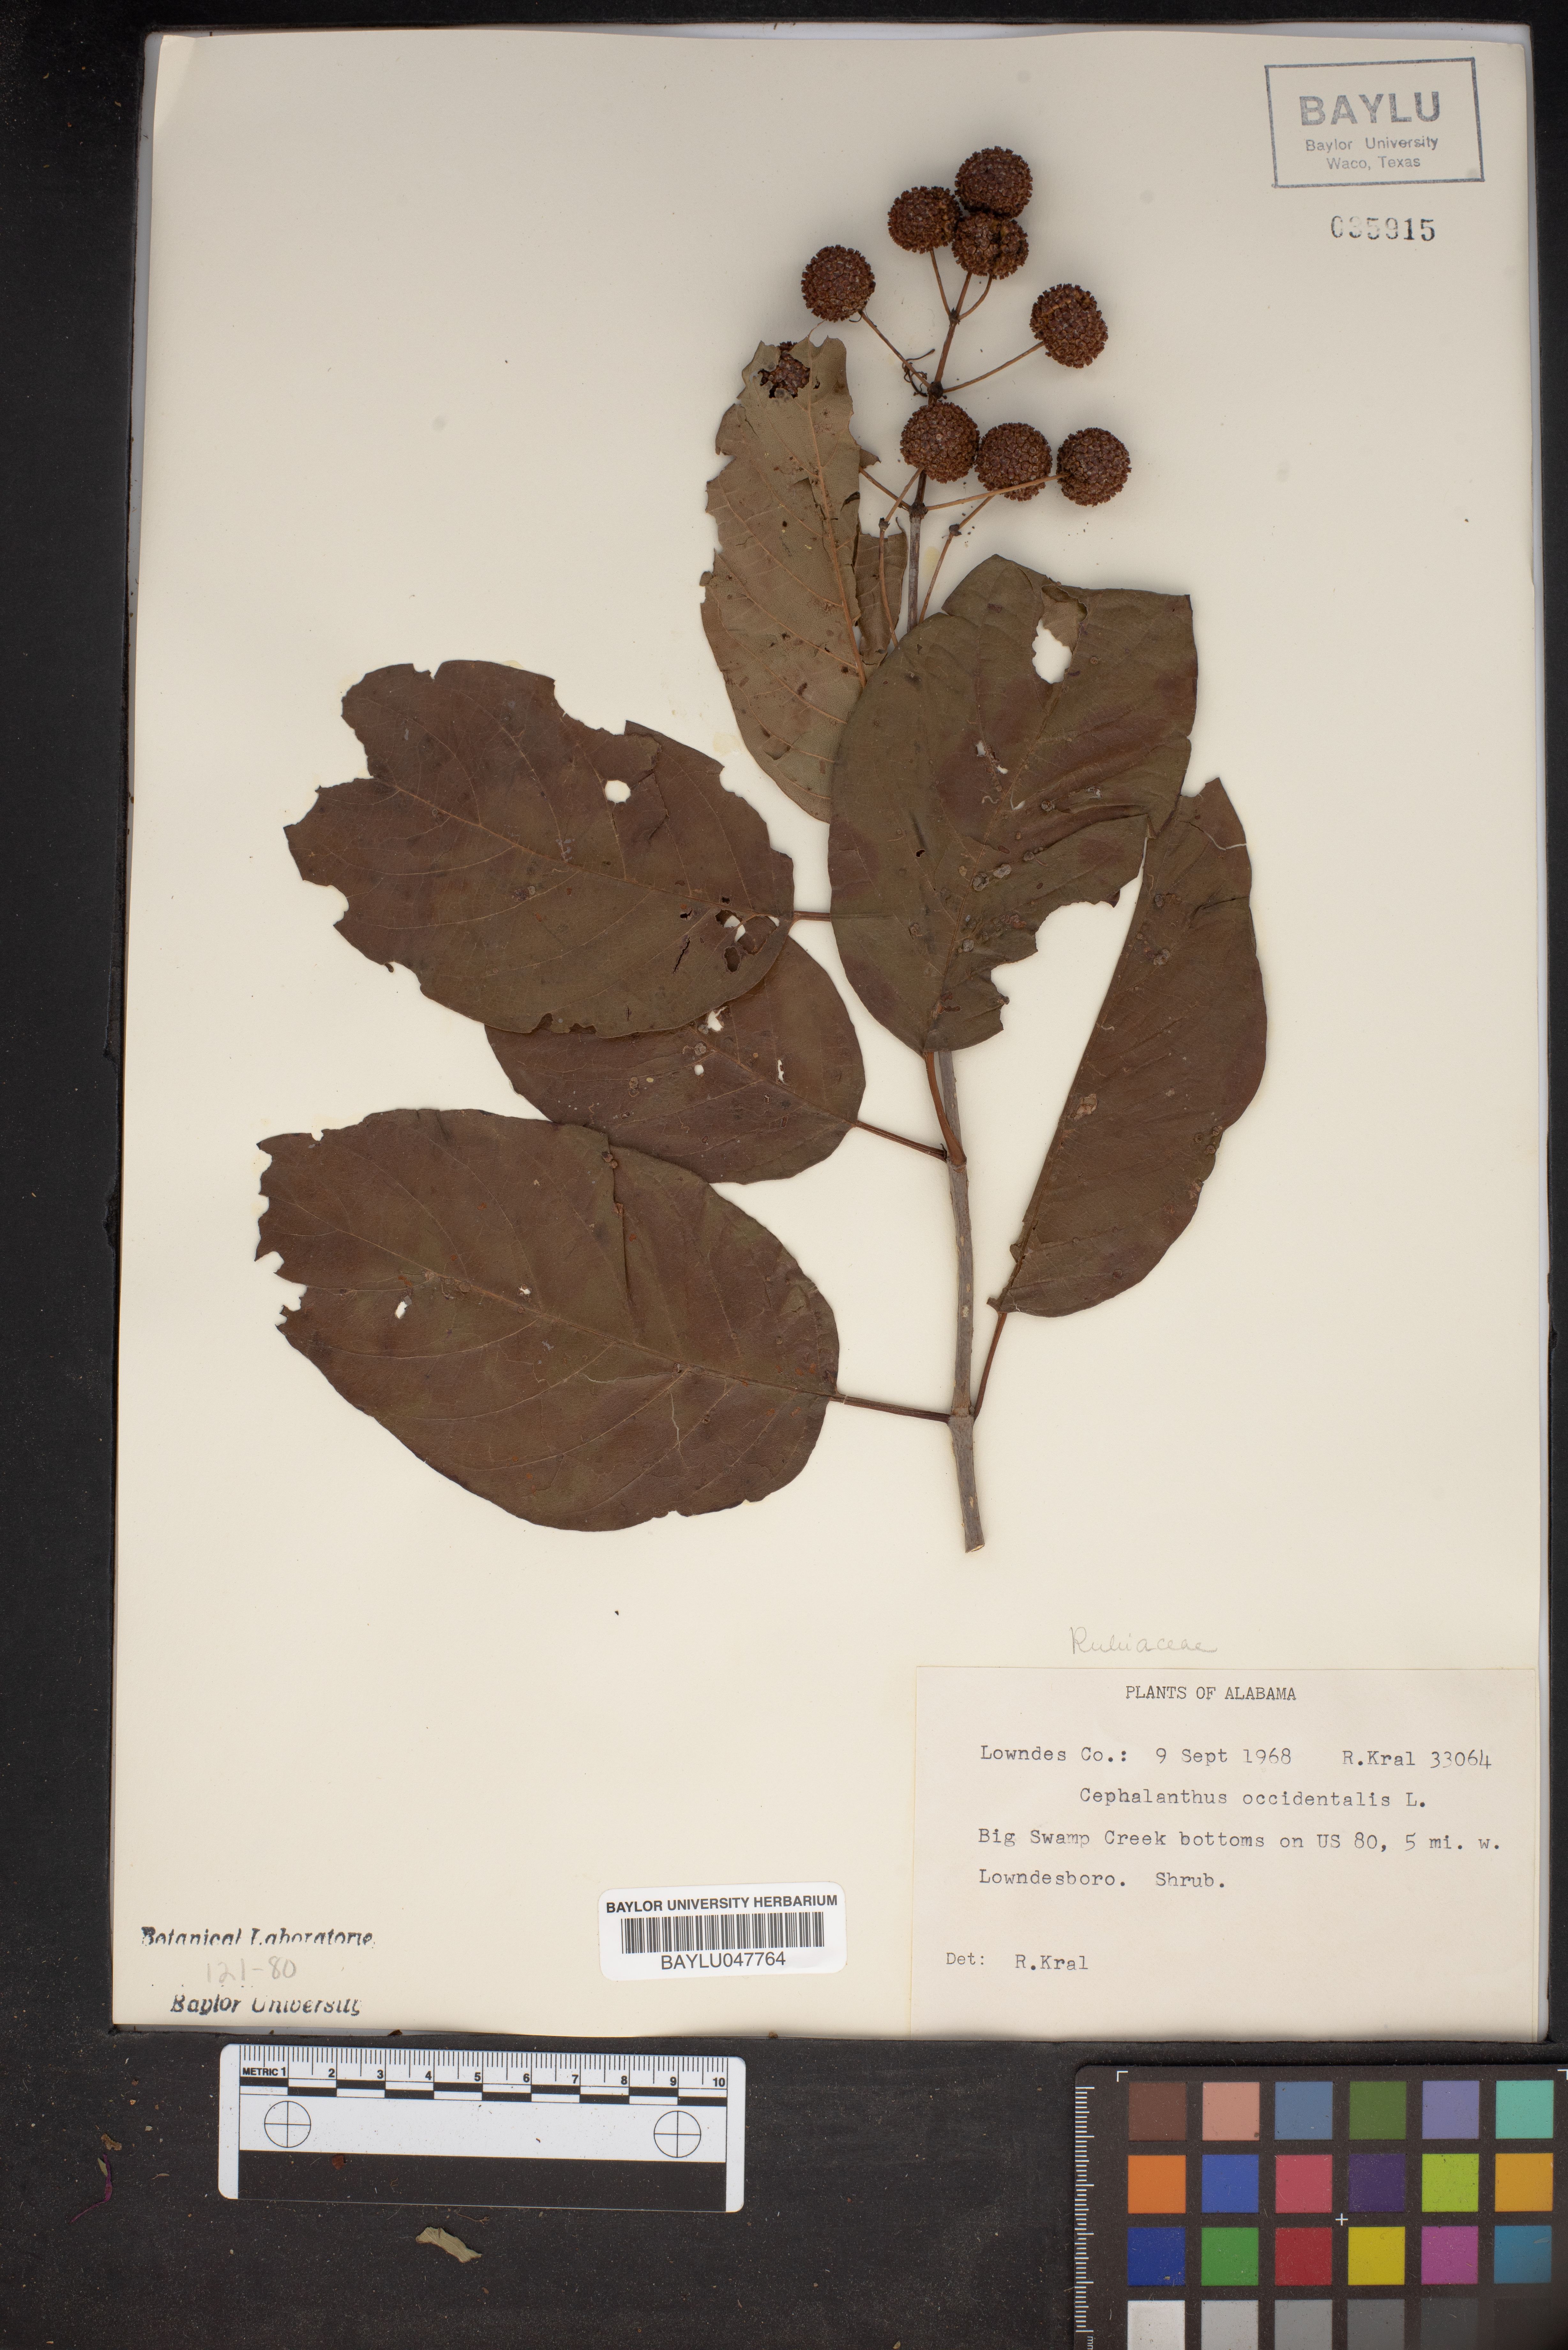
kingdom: Plantae
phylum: Tracheophyta
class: Magnoliopsida
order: Gentianales
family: Rubiaceae
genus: Cephalanthus
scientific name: Cephalanthus occidentalis
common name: Button-willow
